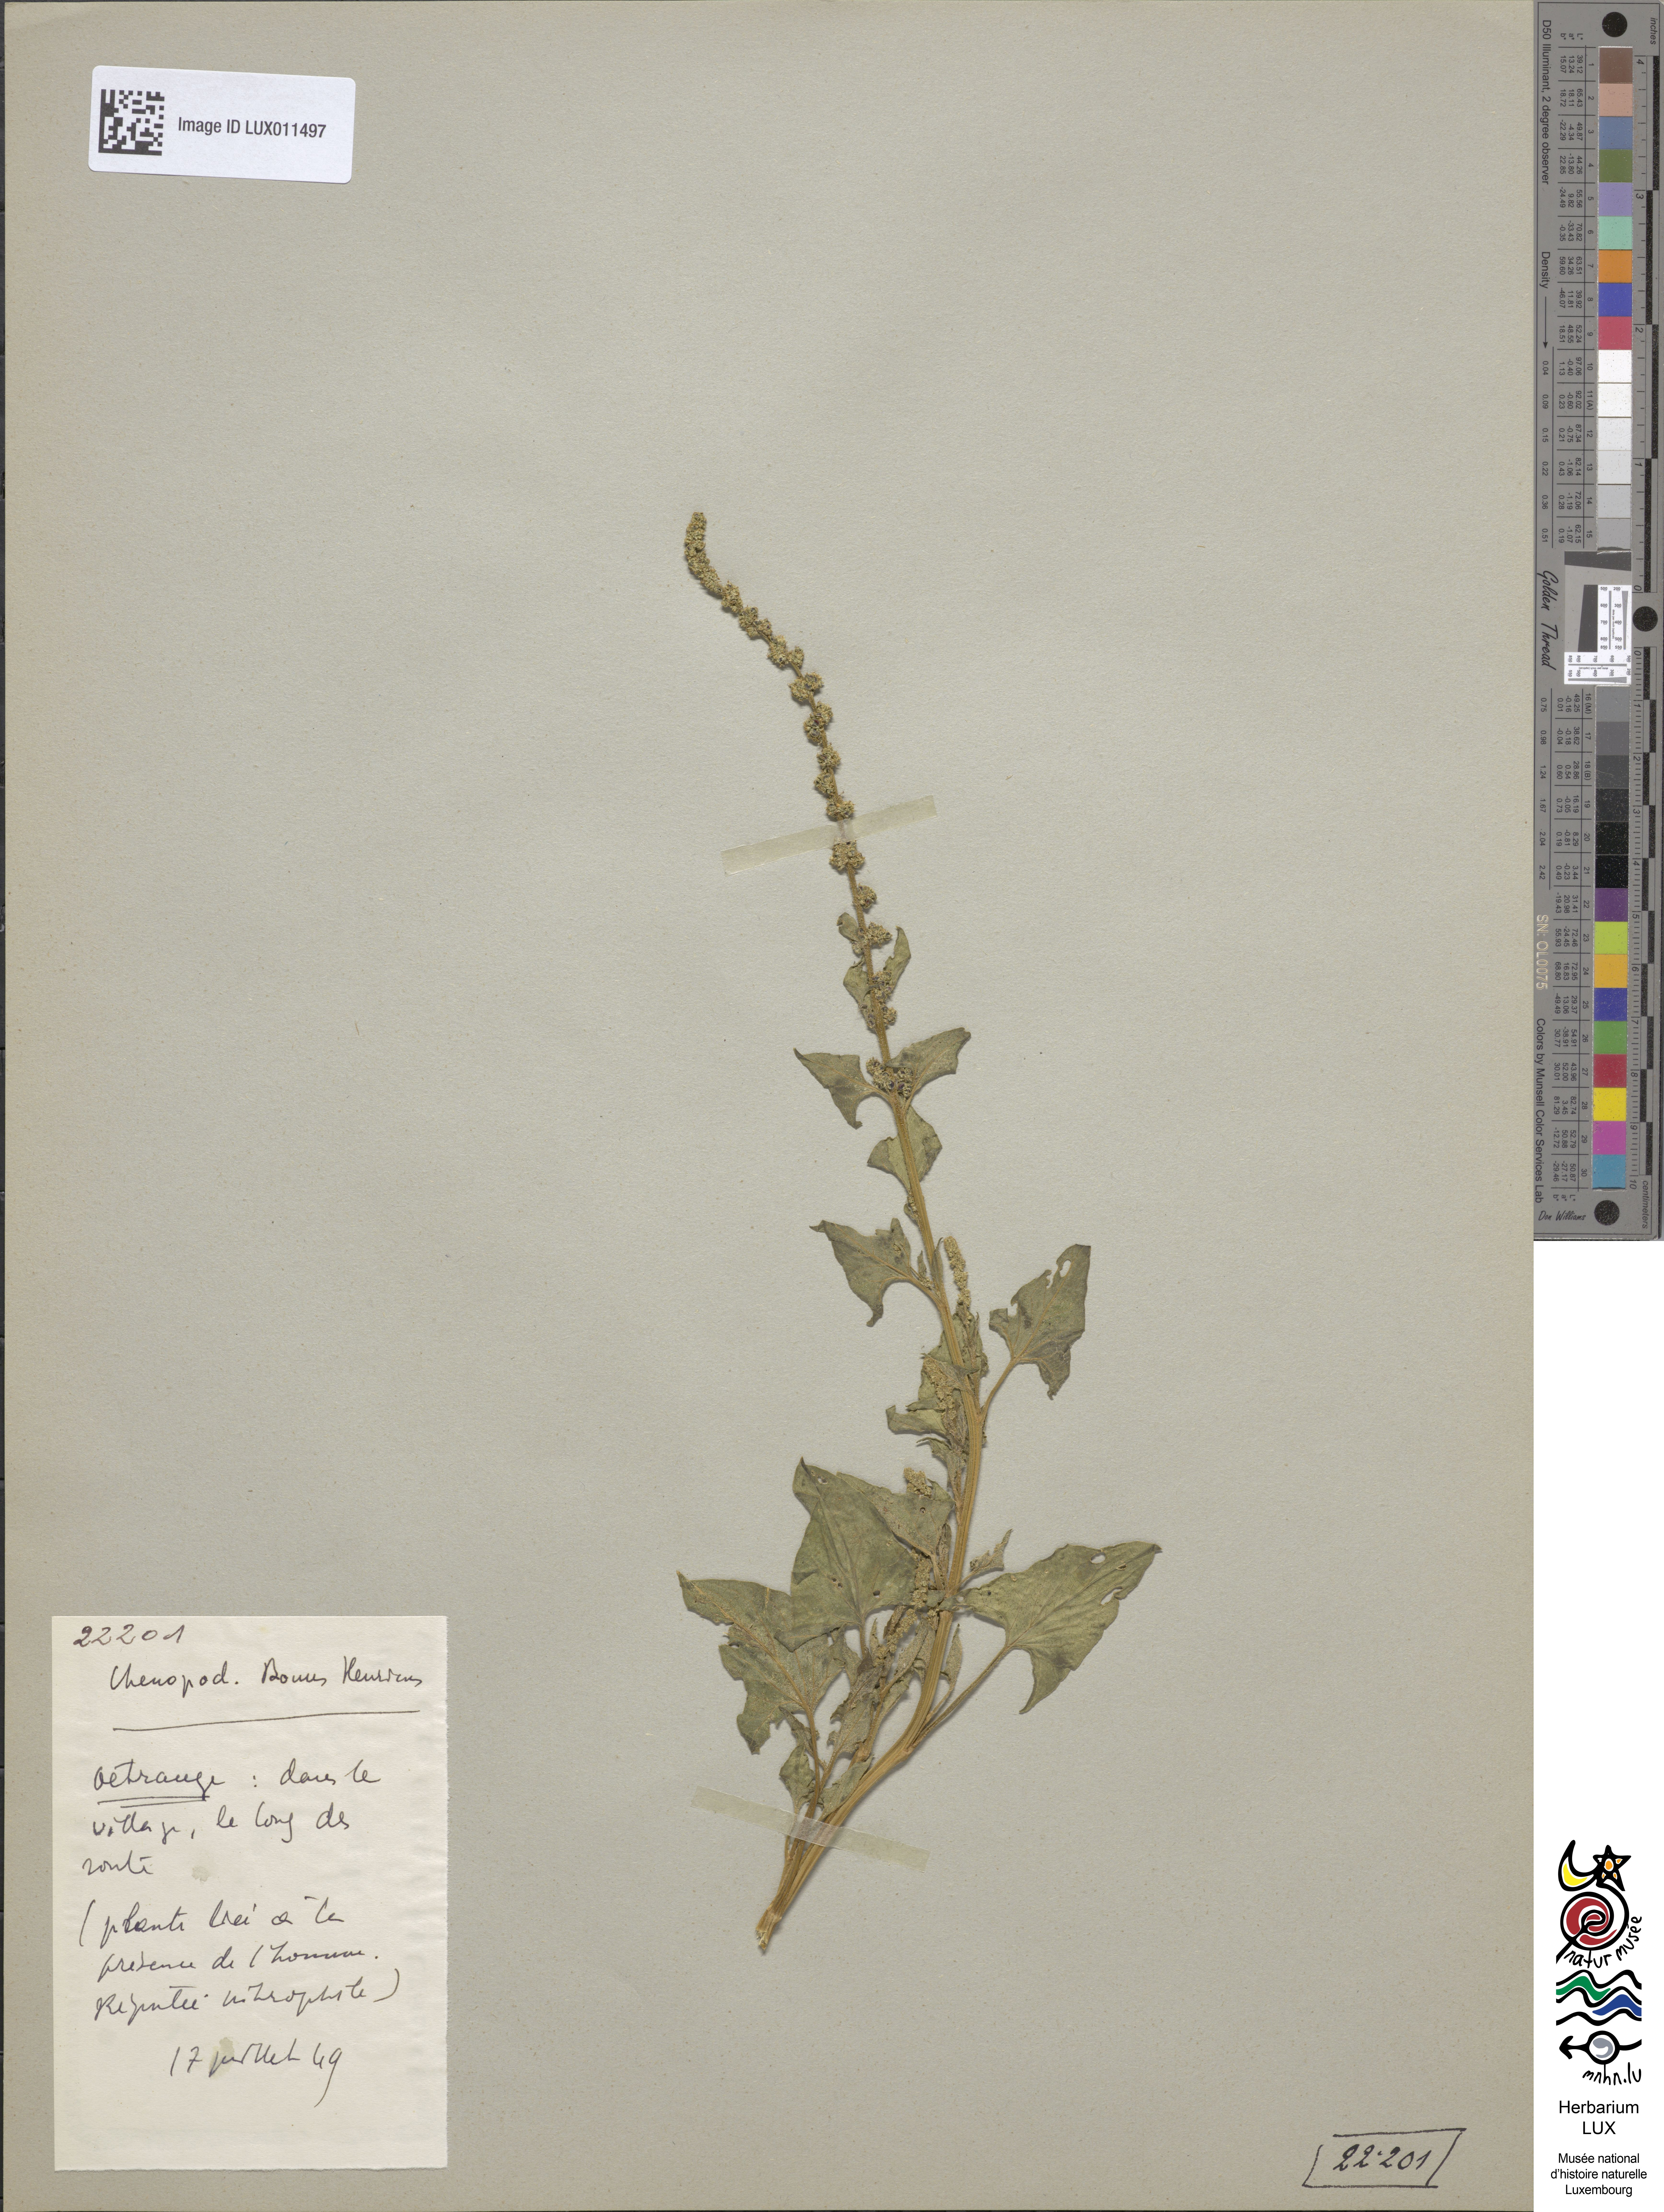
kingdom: Plantae
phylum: Tracheophyta
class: Magnoliopsida
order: Caryophyllales
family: Amaranthaceae
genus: Blitum
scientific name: Blitum bonus-henricus
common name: Good king henry
